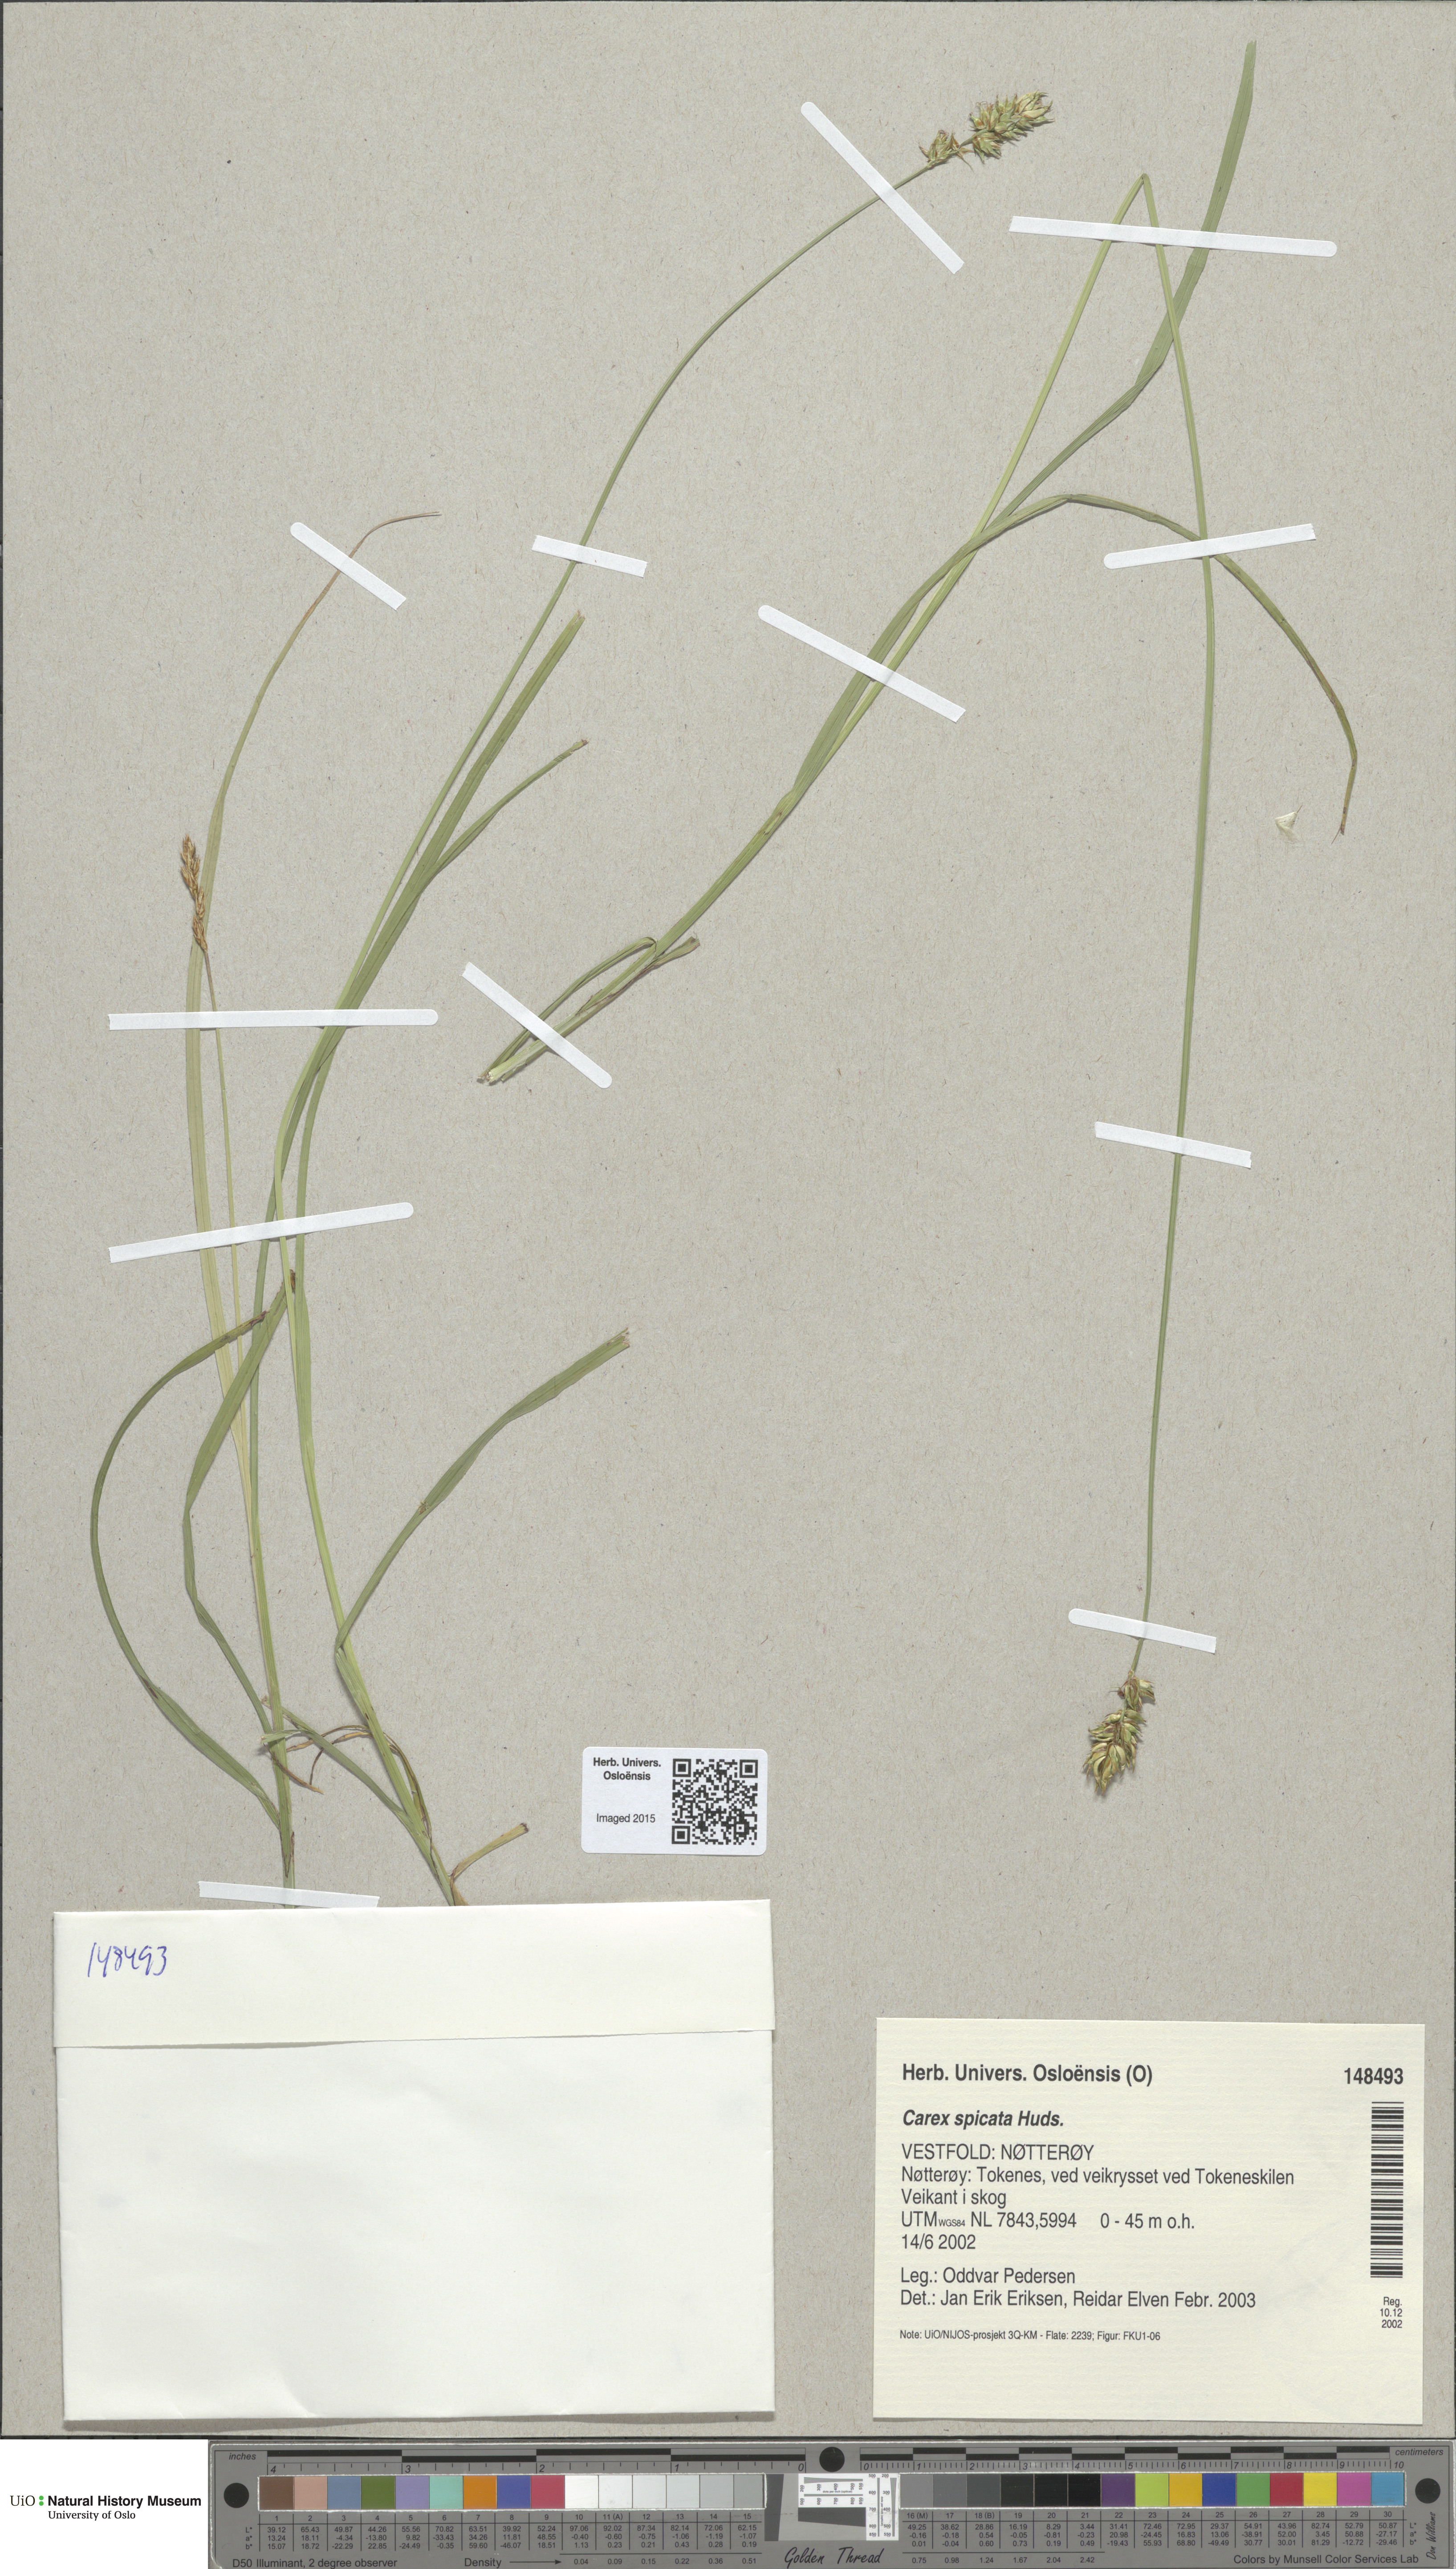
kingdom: Plantae
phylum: Tracheophyta
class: Liliopsida
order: Poales
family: Cyperaceae
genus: Carex
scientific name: Carex spicata
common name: Spiked sedge
